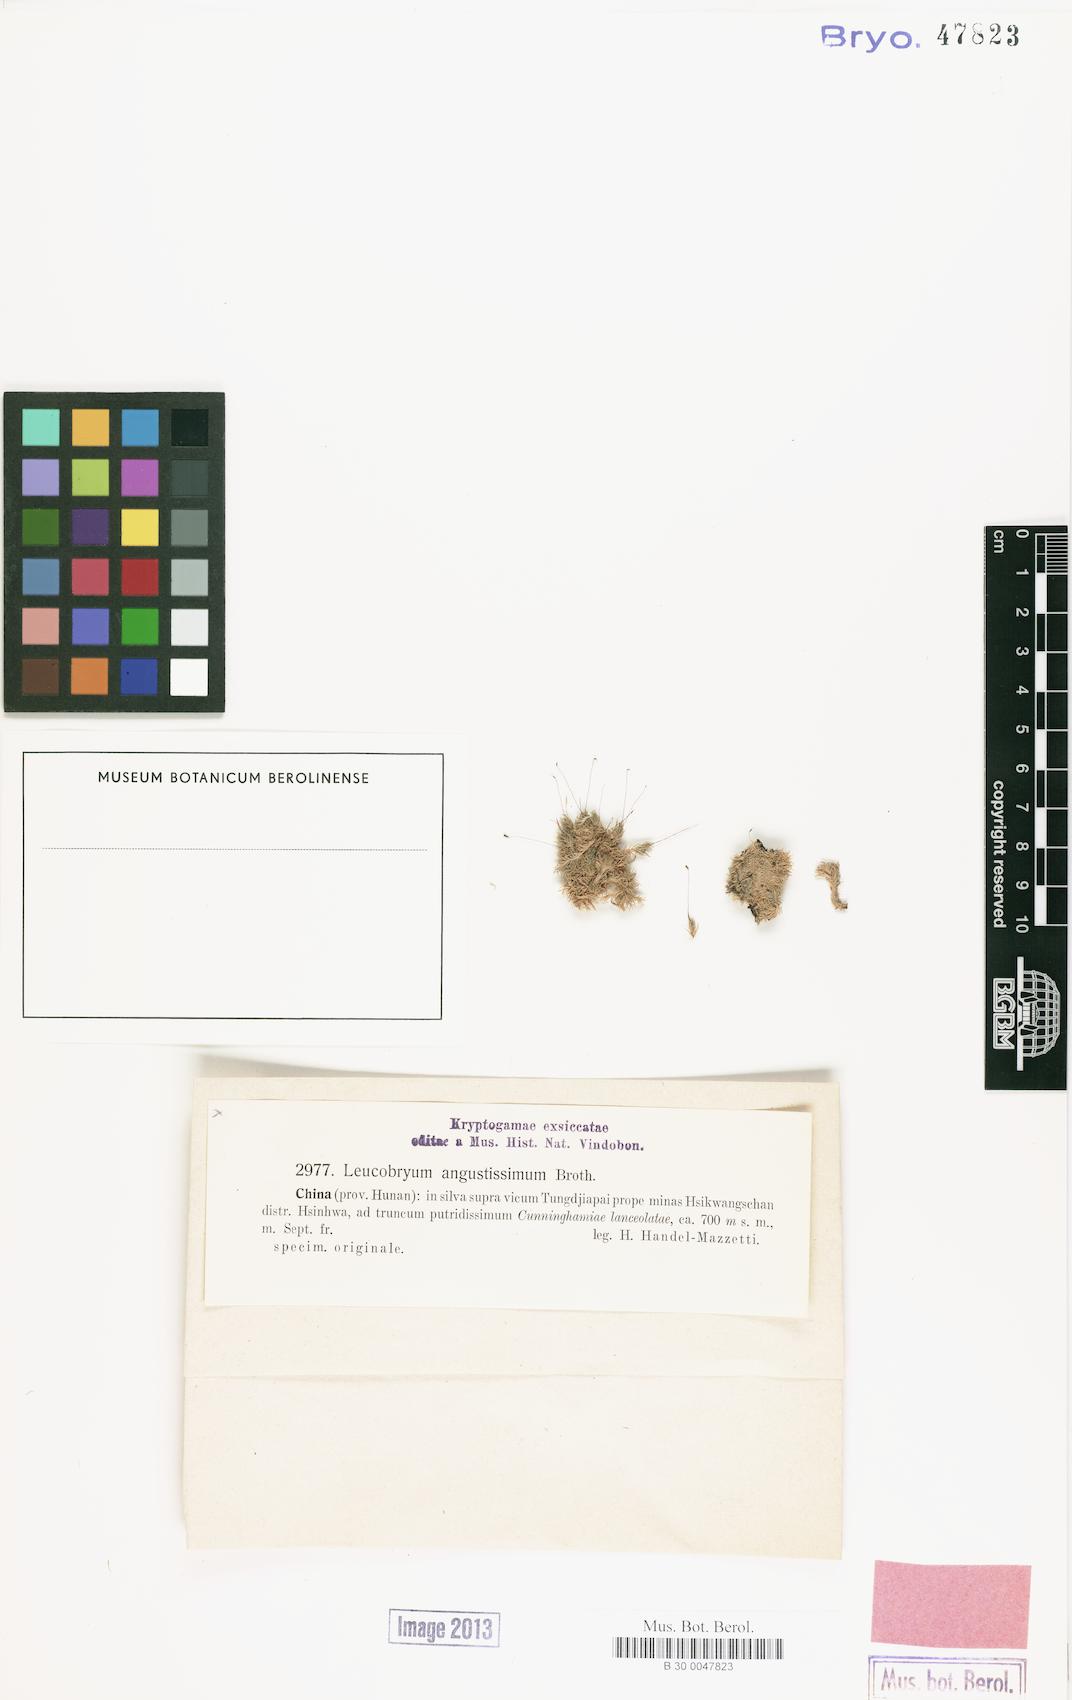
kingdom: Plantae
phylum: Bryophyta
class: Bryopsida
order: Dicranales
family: Leucobryaceae
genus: Leucobryum
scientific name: Leucobryum juniperoideum
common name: Smaller white-moss
